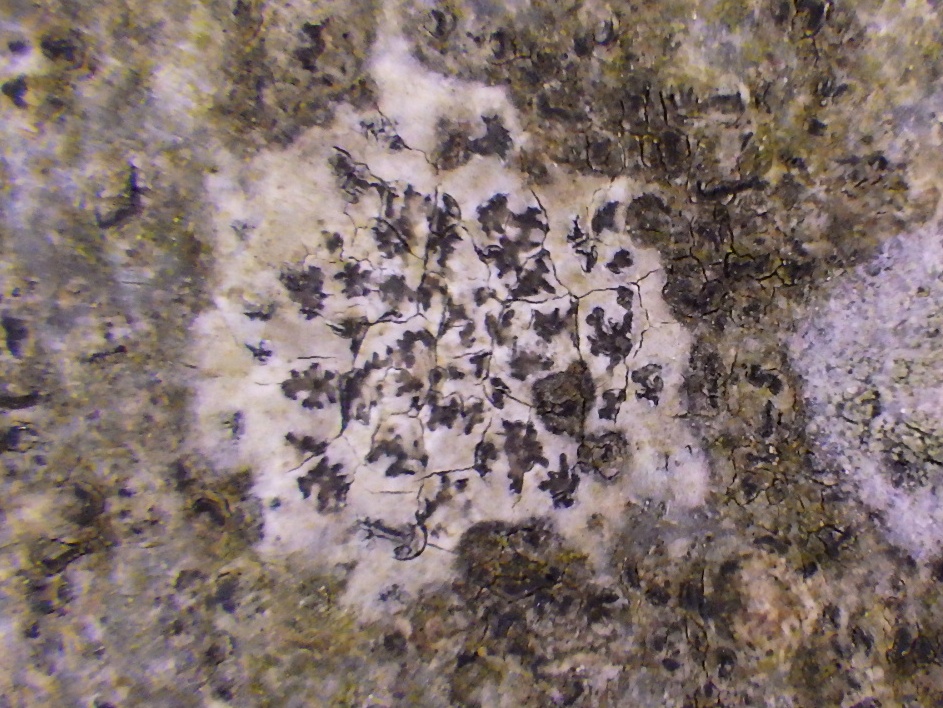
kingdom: Fungi
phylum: Ascomycota
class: Arthoniomycetes
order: Arthoniales
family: Arthoniaceae
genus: Arthonia
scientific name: Arthonia radiata
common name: stjerne-pletlav
